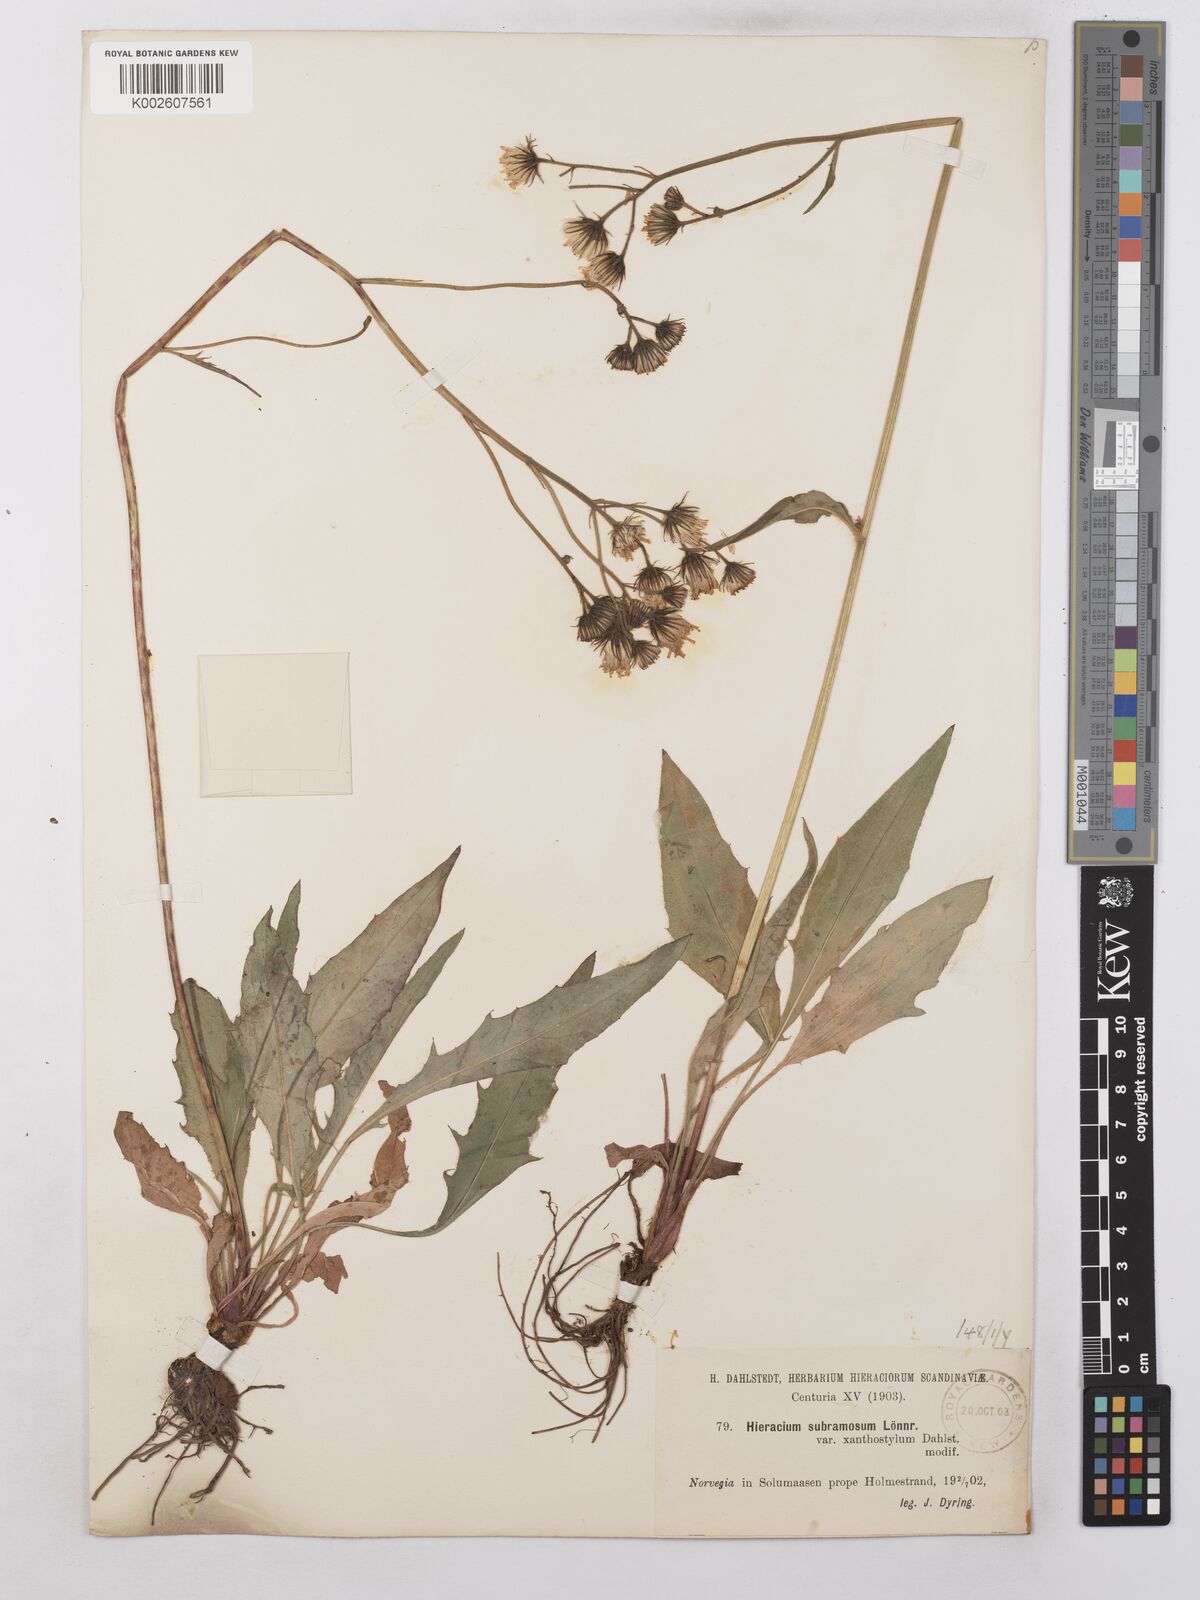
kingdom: Plantae
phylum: Tracheophyta
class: Magnoliopsida
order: Asterales
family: Asteraceae
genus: Hieracium
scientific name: Hieracium subramosum
